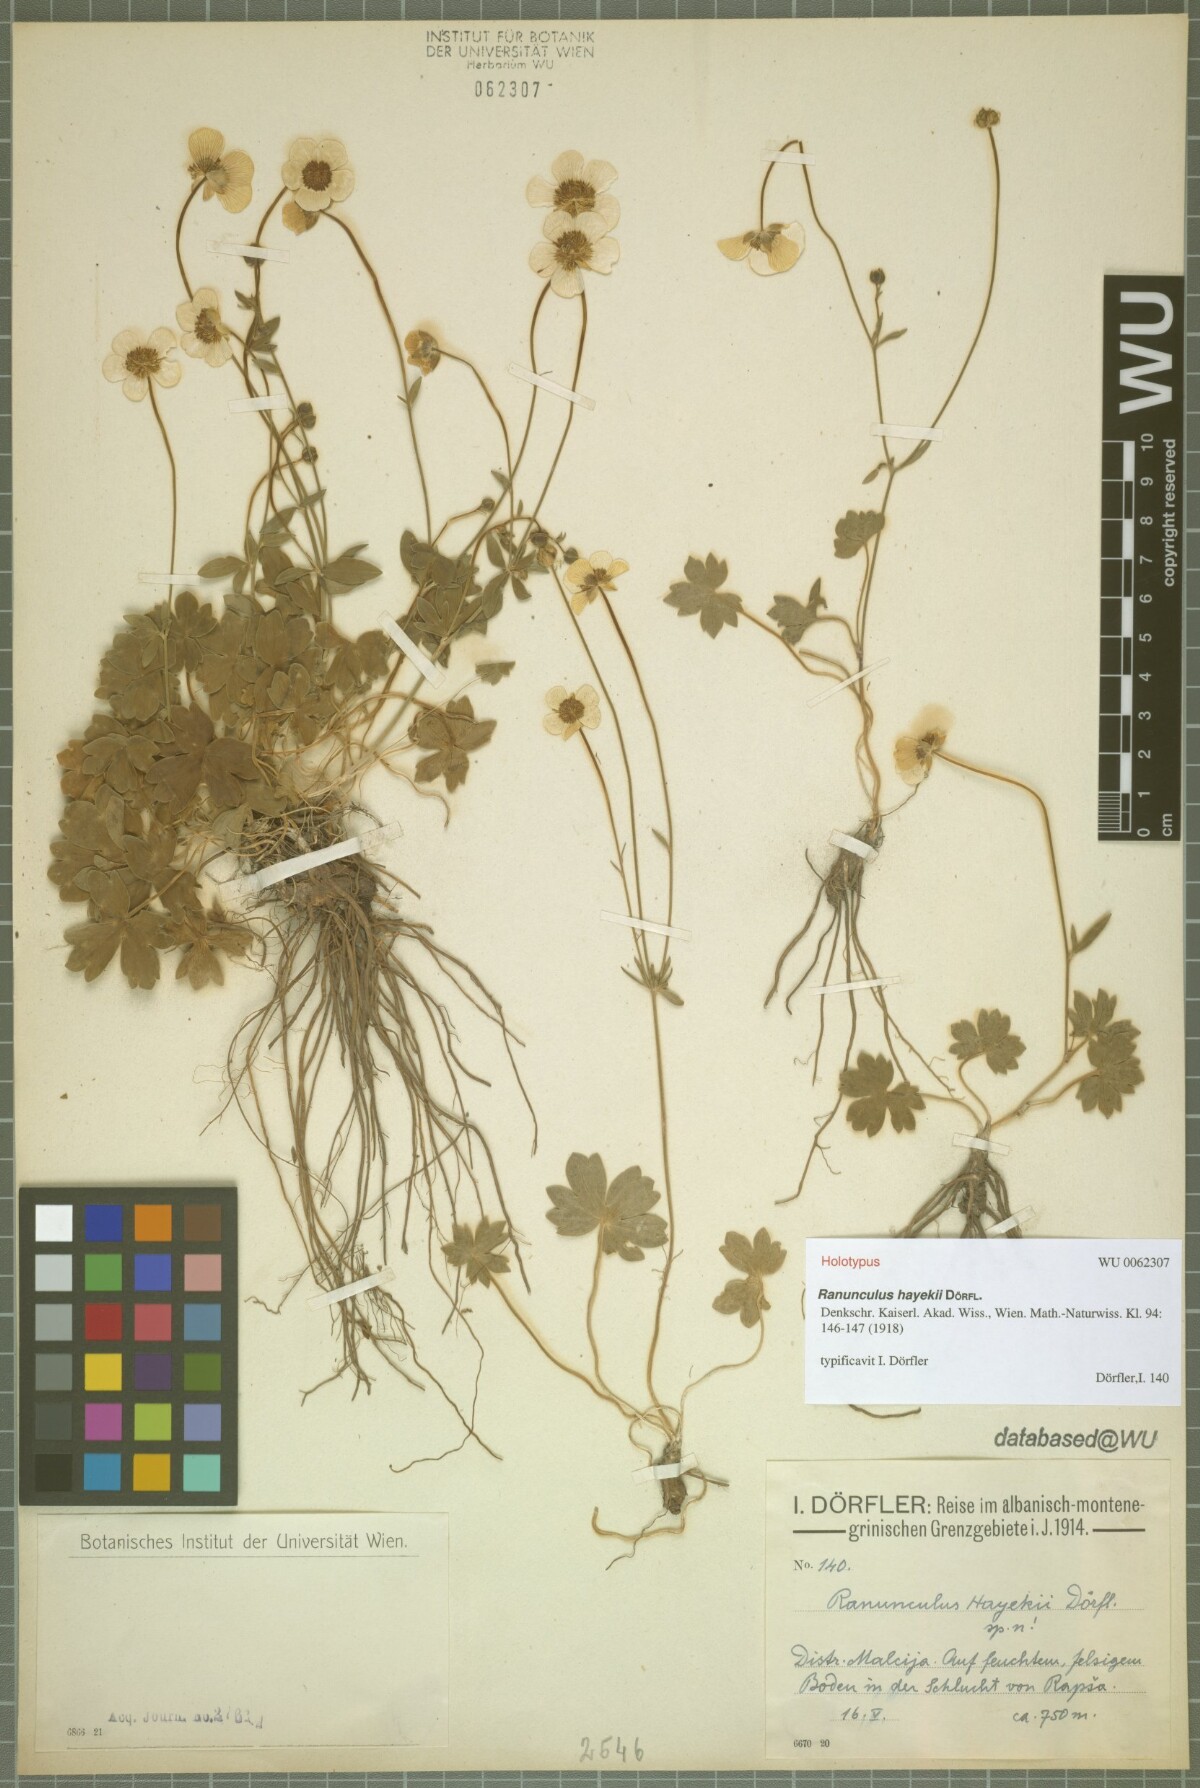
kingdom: Plantae
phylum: Tracheophyta
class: Magnoliopsida
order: Ranunculales
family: Ranunculaceae
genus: Ranunculus
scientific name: Ranunculus hayekii
